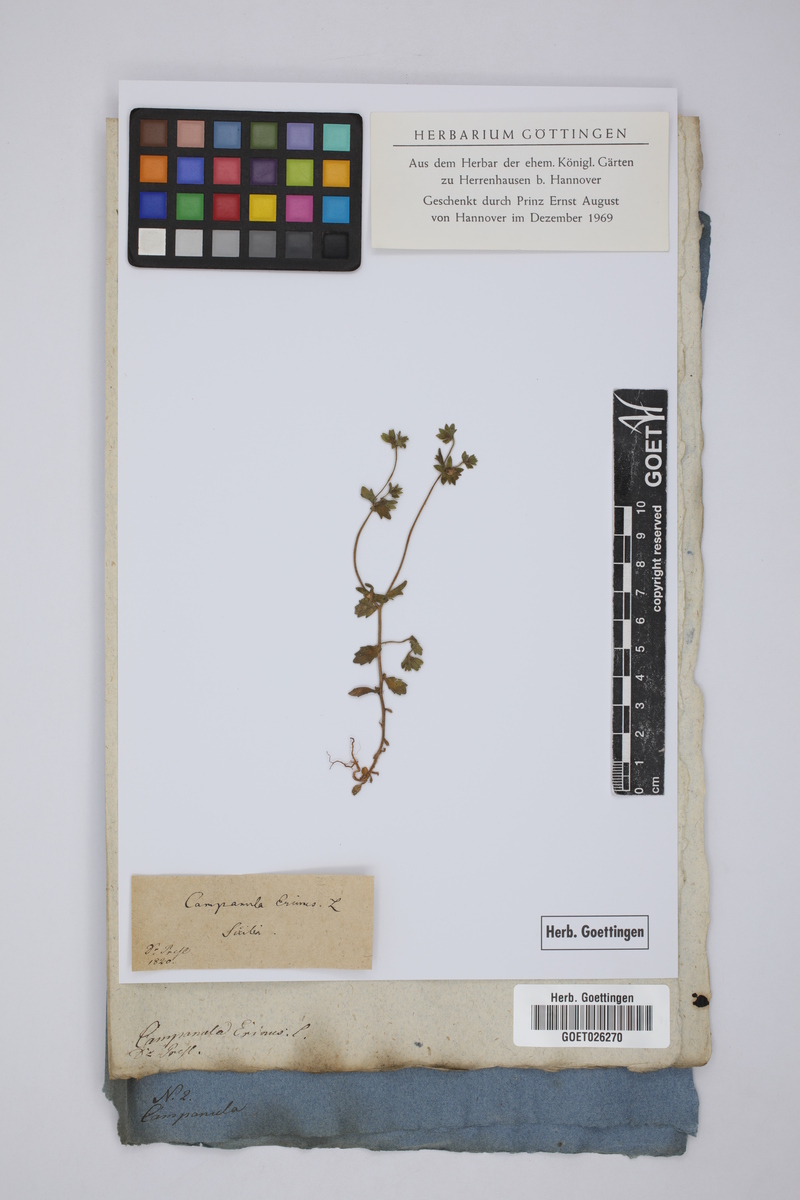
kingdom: Plantae
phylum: Tracheophyta
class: Magnoliopsida
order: Asterales
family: Campanulaceae
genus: Campanula
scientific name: Campanula erinus
